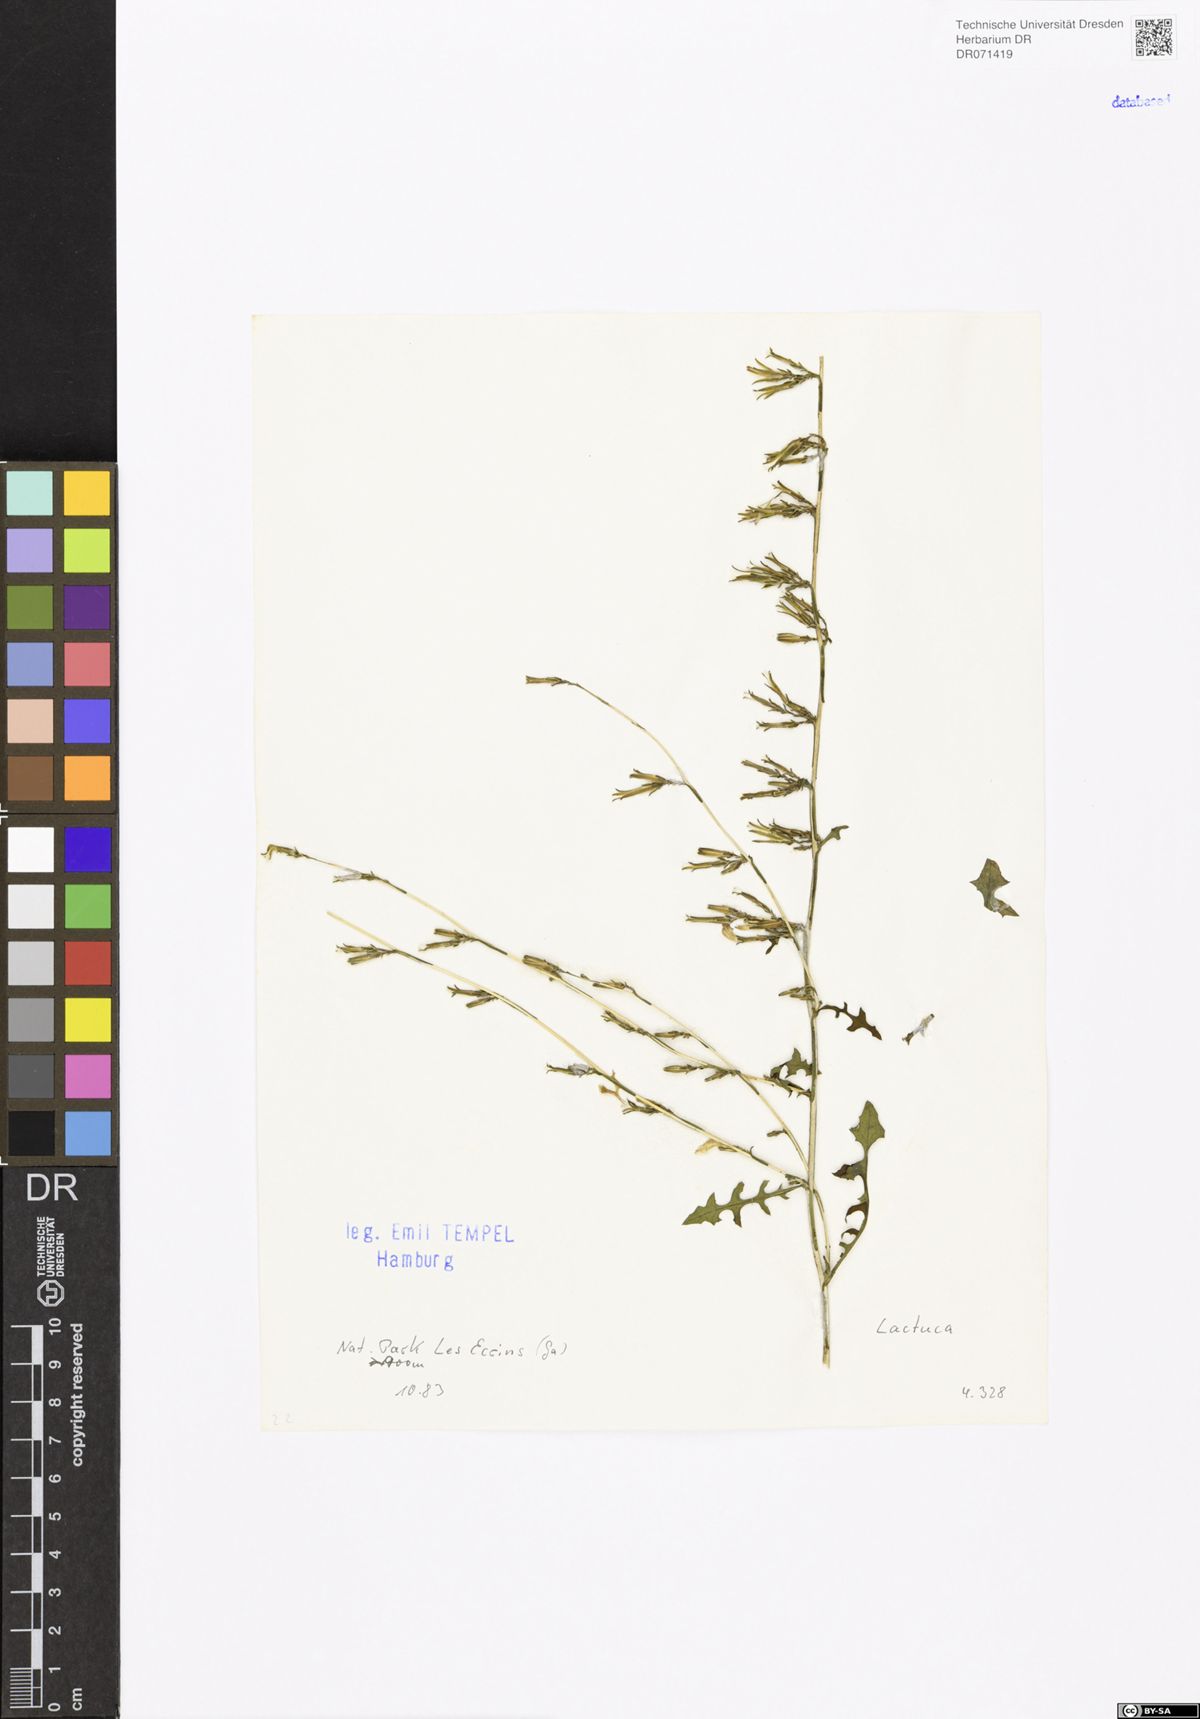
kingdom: Plantae
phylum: Tracheophyta
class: Magnoliopsida
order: Asterales
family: Asteraceae
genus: Lactuca
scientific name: Lactuca
